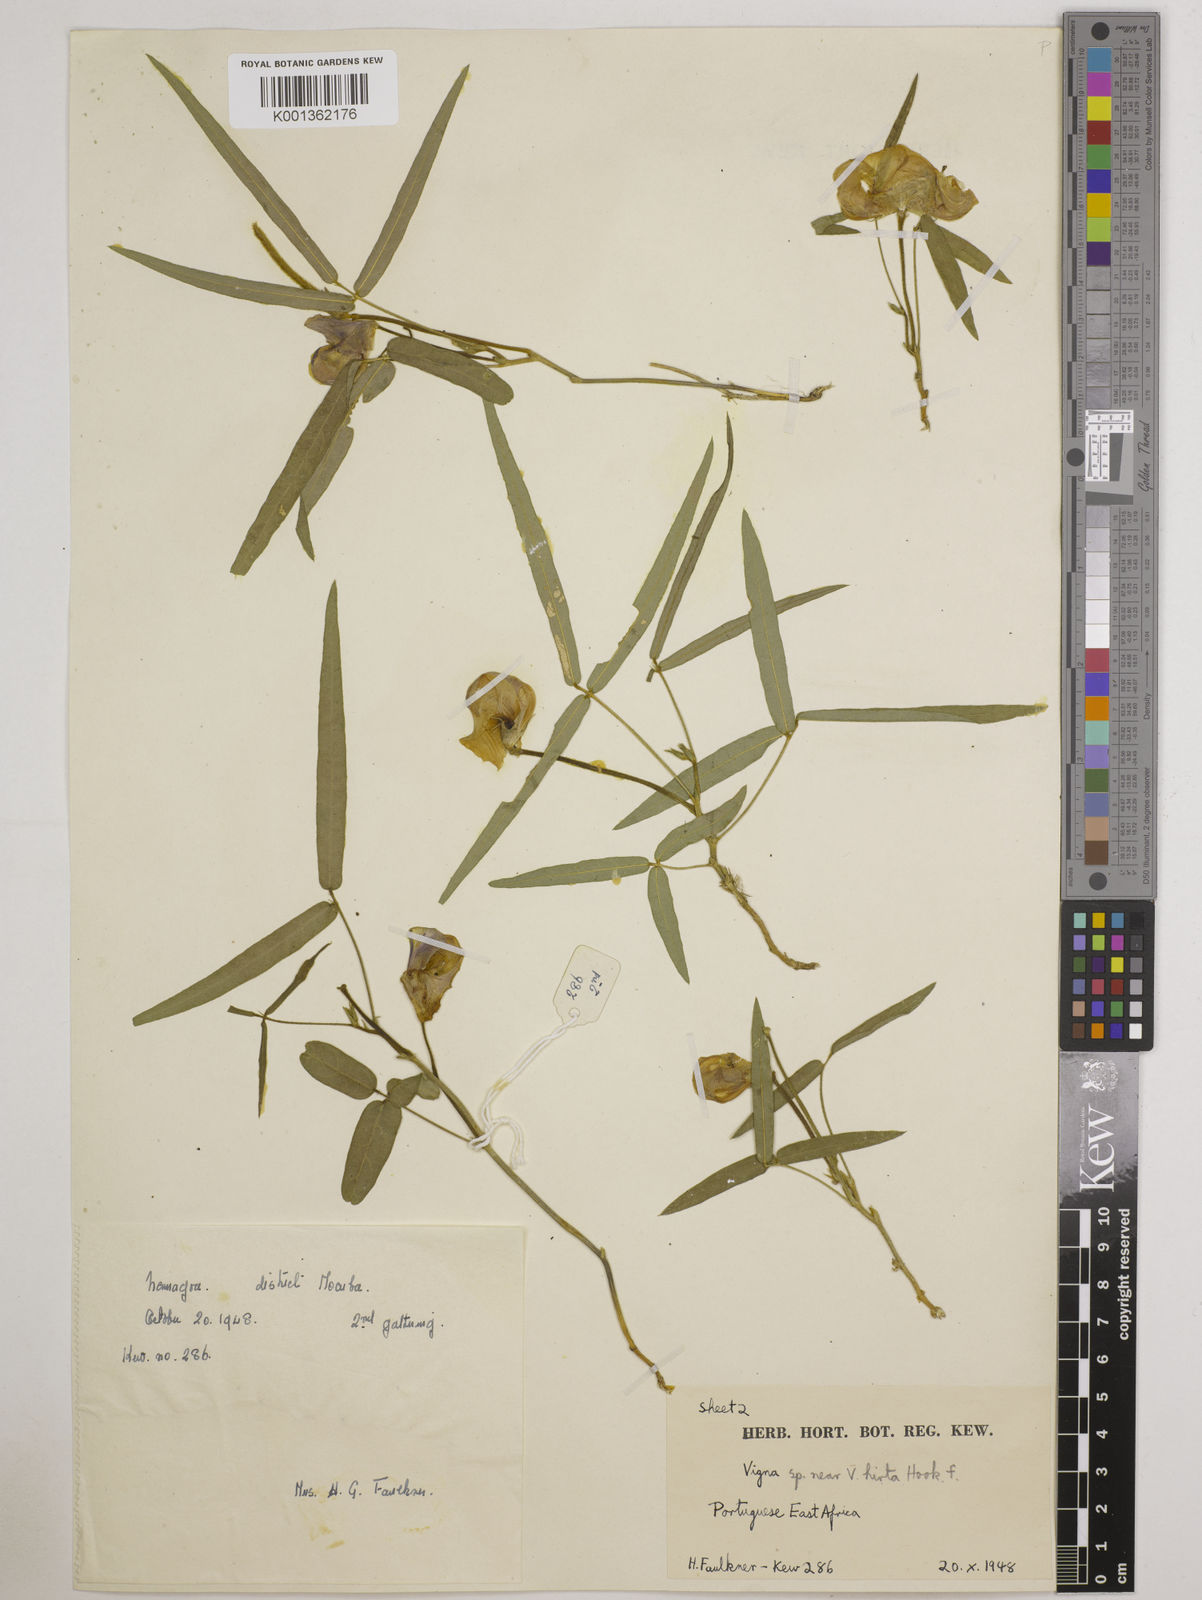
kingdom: Plantae
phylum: Tracheophyta
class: Magnoliopsida
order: Fabales
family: Fabaceae
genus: Vigna
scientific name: Vigna vexillata
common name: Zombi pea
